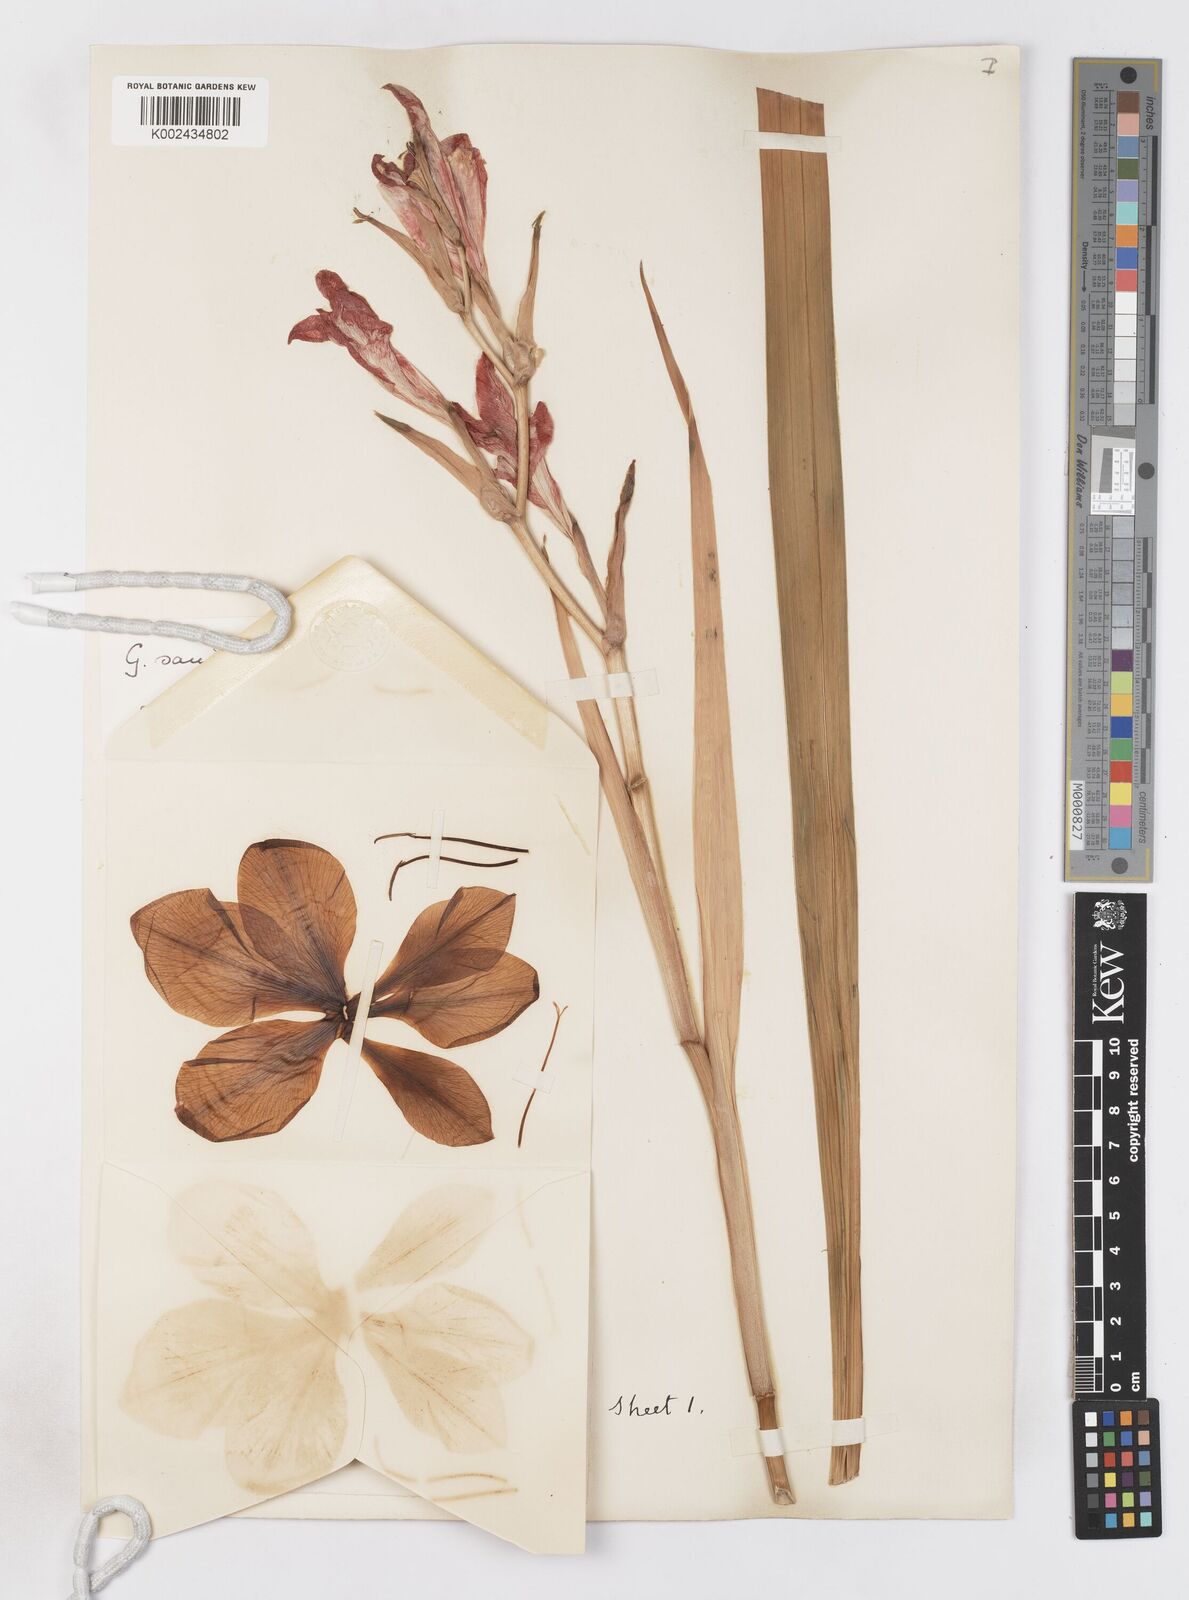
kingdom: Plantae
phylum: Tracheophyta
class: Liliopsida
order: Asparagales
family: Iridaceae
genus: Gladiolus
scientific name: Gladiolus cardinalis
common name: New year-lily
